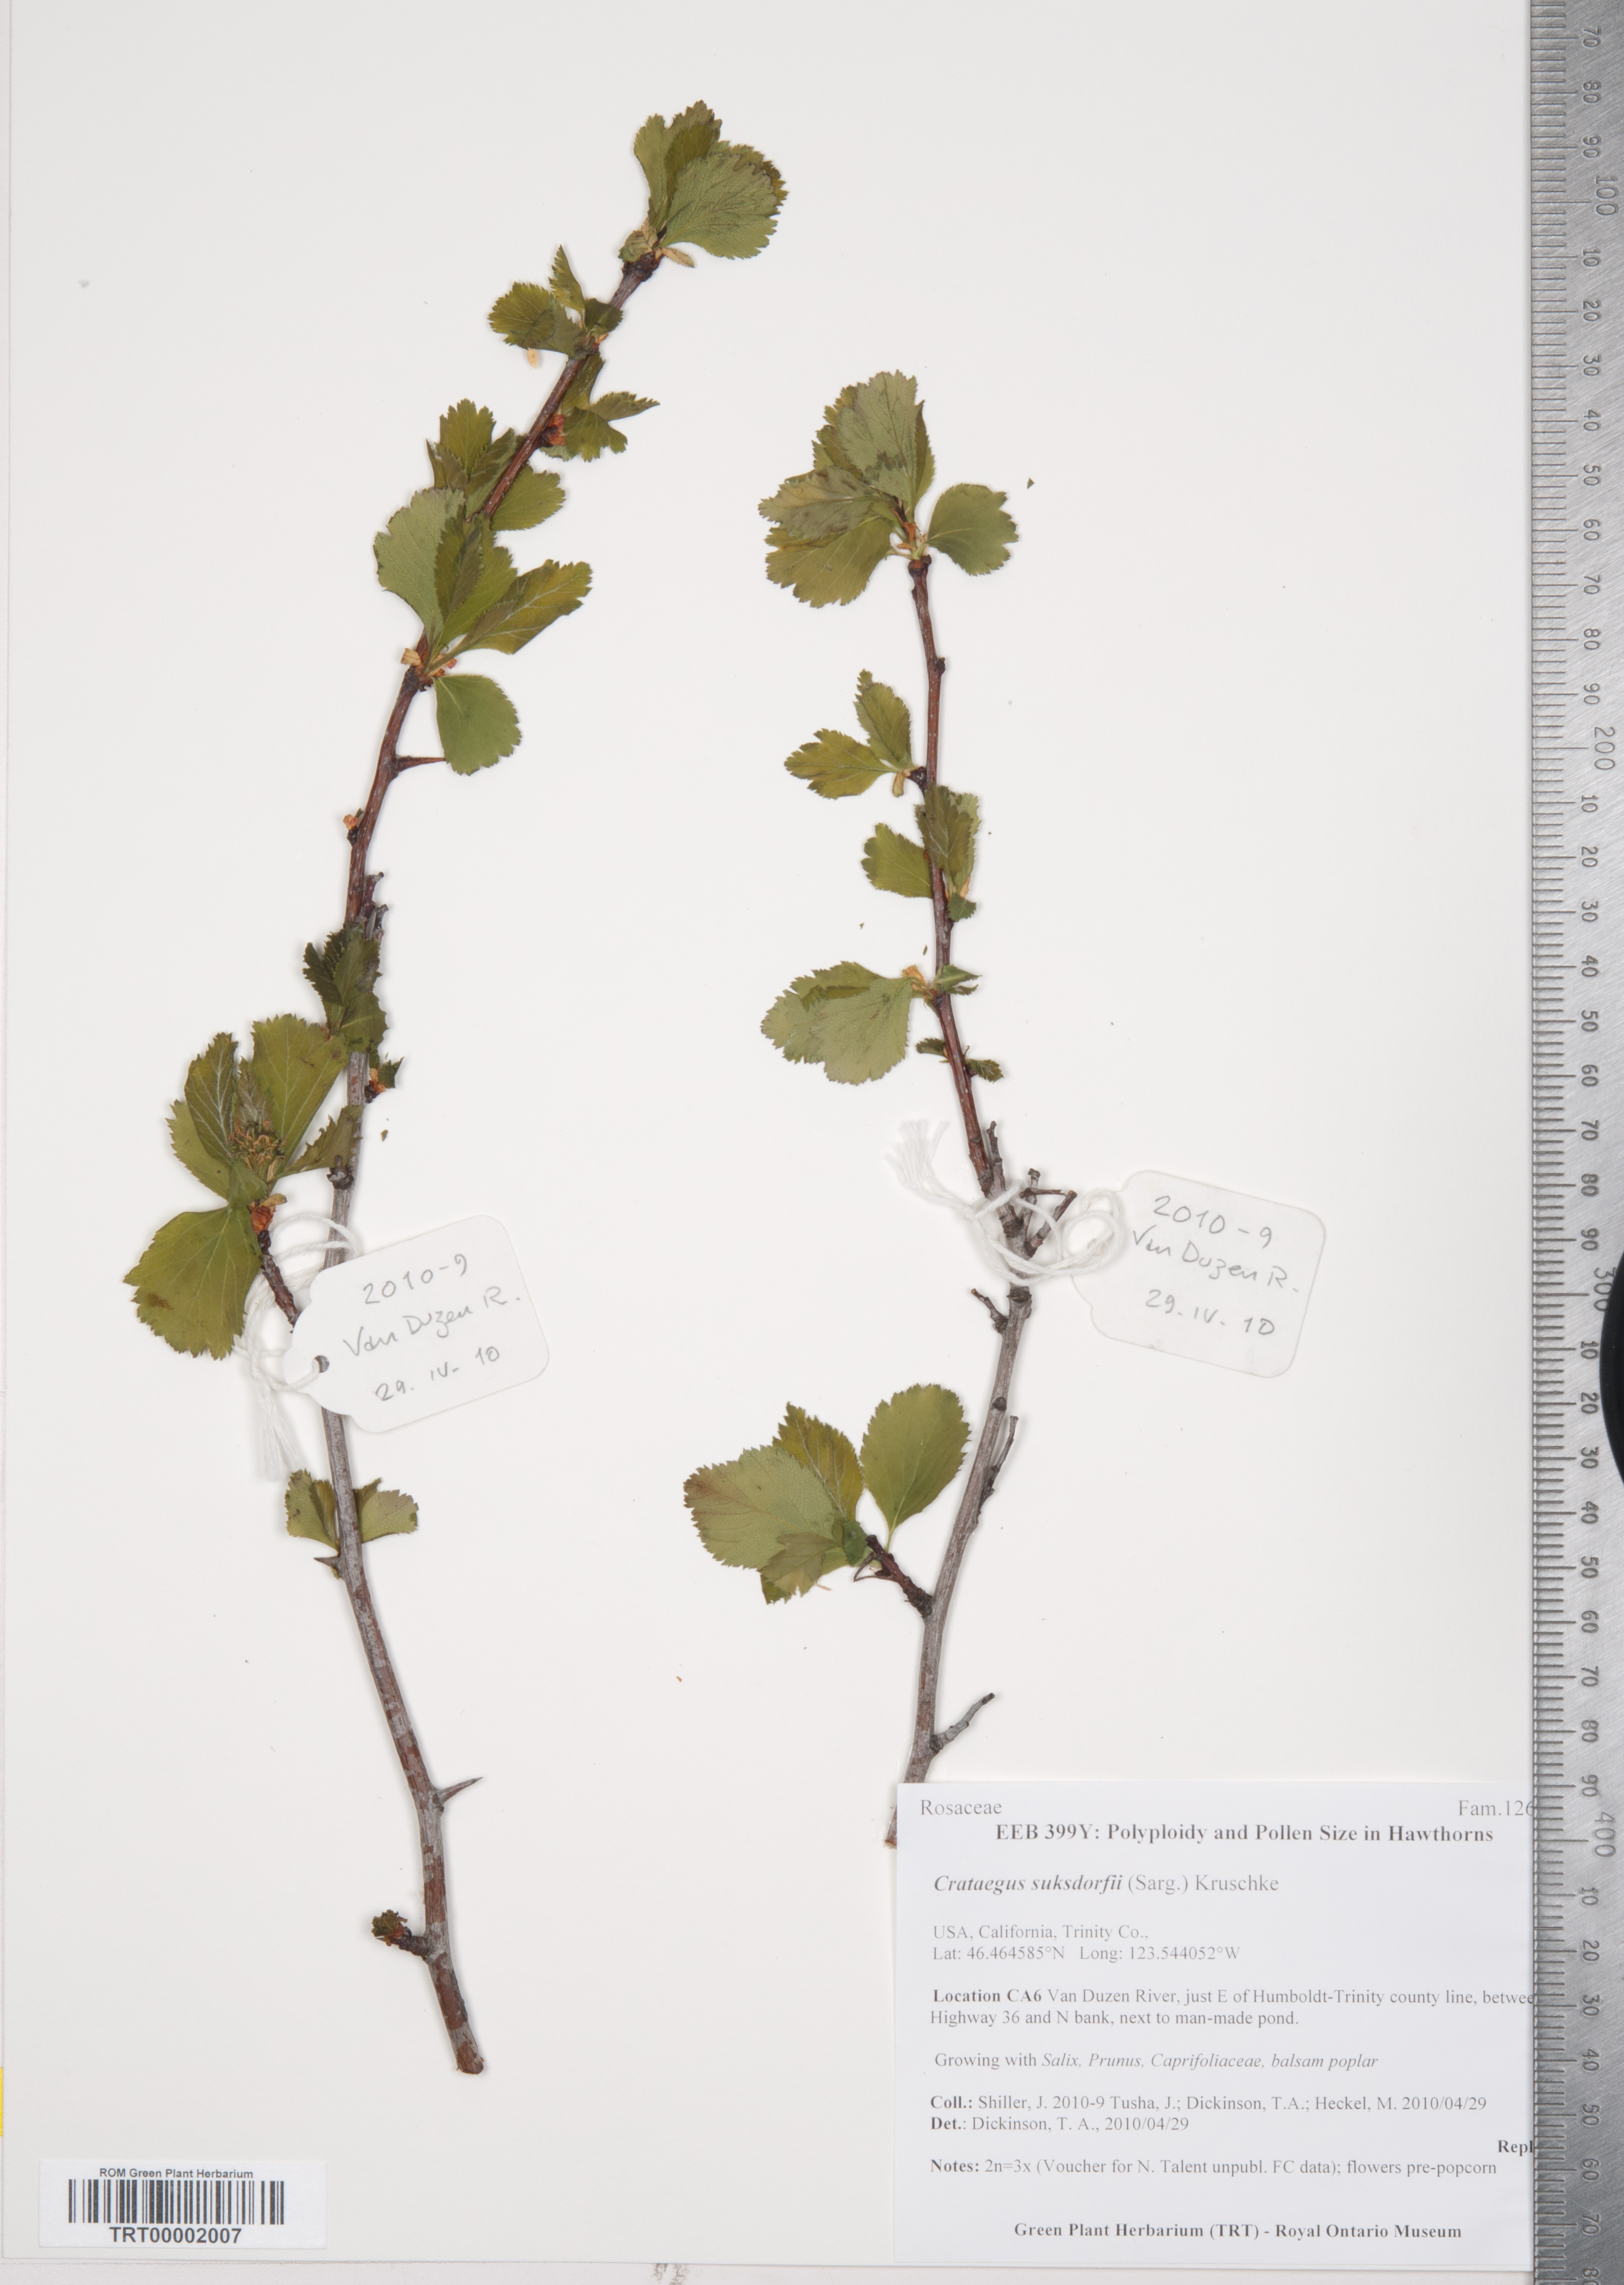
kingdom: Plantae
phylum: Tracheophyta
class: Magnoliopsida
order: Rosales
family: Rosaceae
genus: Crataegus
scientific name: Crataegus gaylussacia
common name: Huckleberry hawthorn
